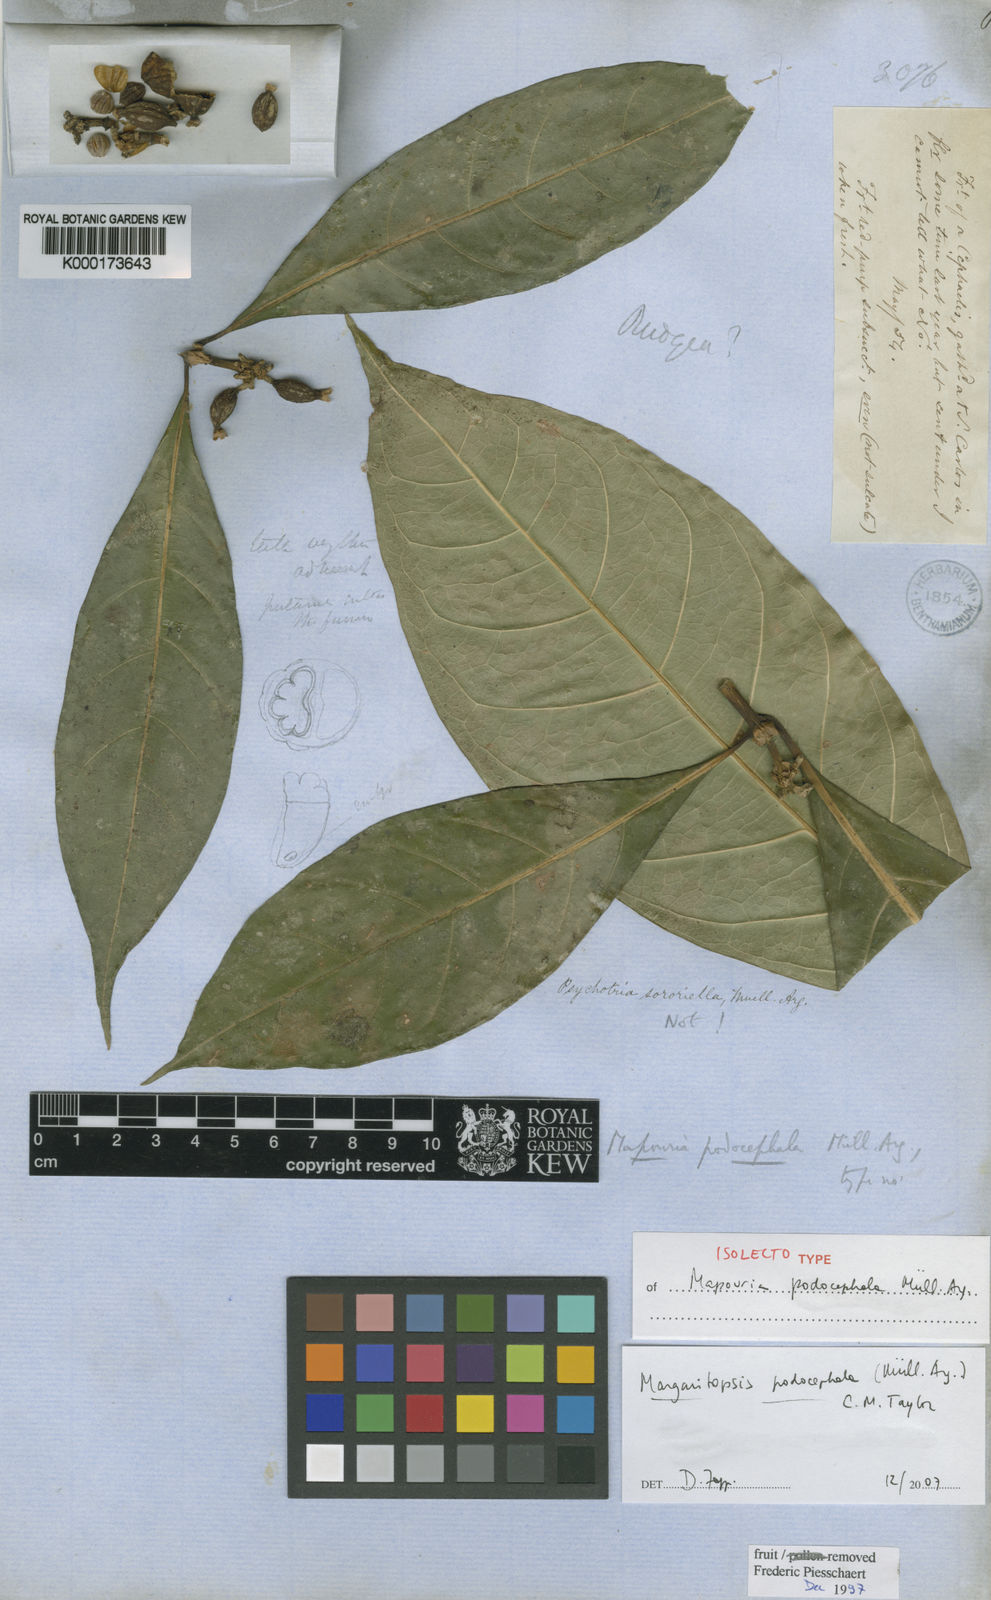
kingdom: Plantae
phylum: Tracheophyta
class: Magnoliopsida
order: Gentianales
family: Rubiaceae
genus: Eumachia
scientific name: Eumachia
